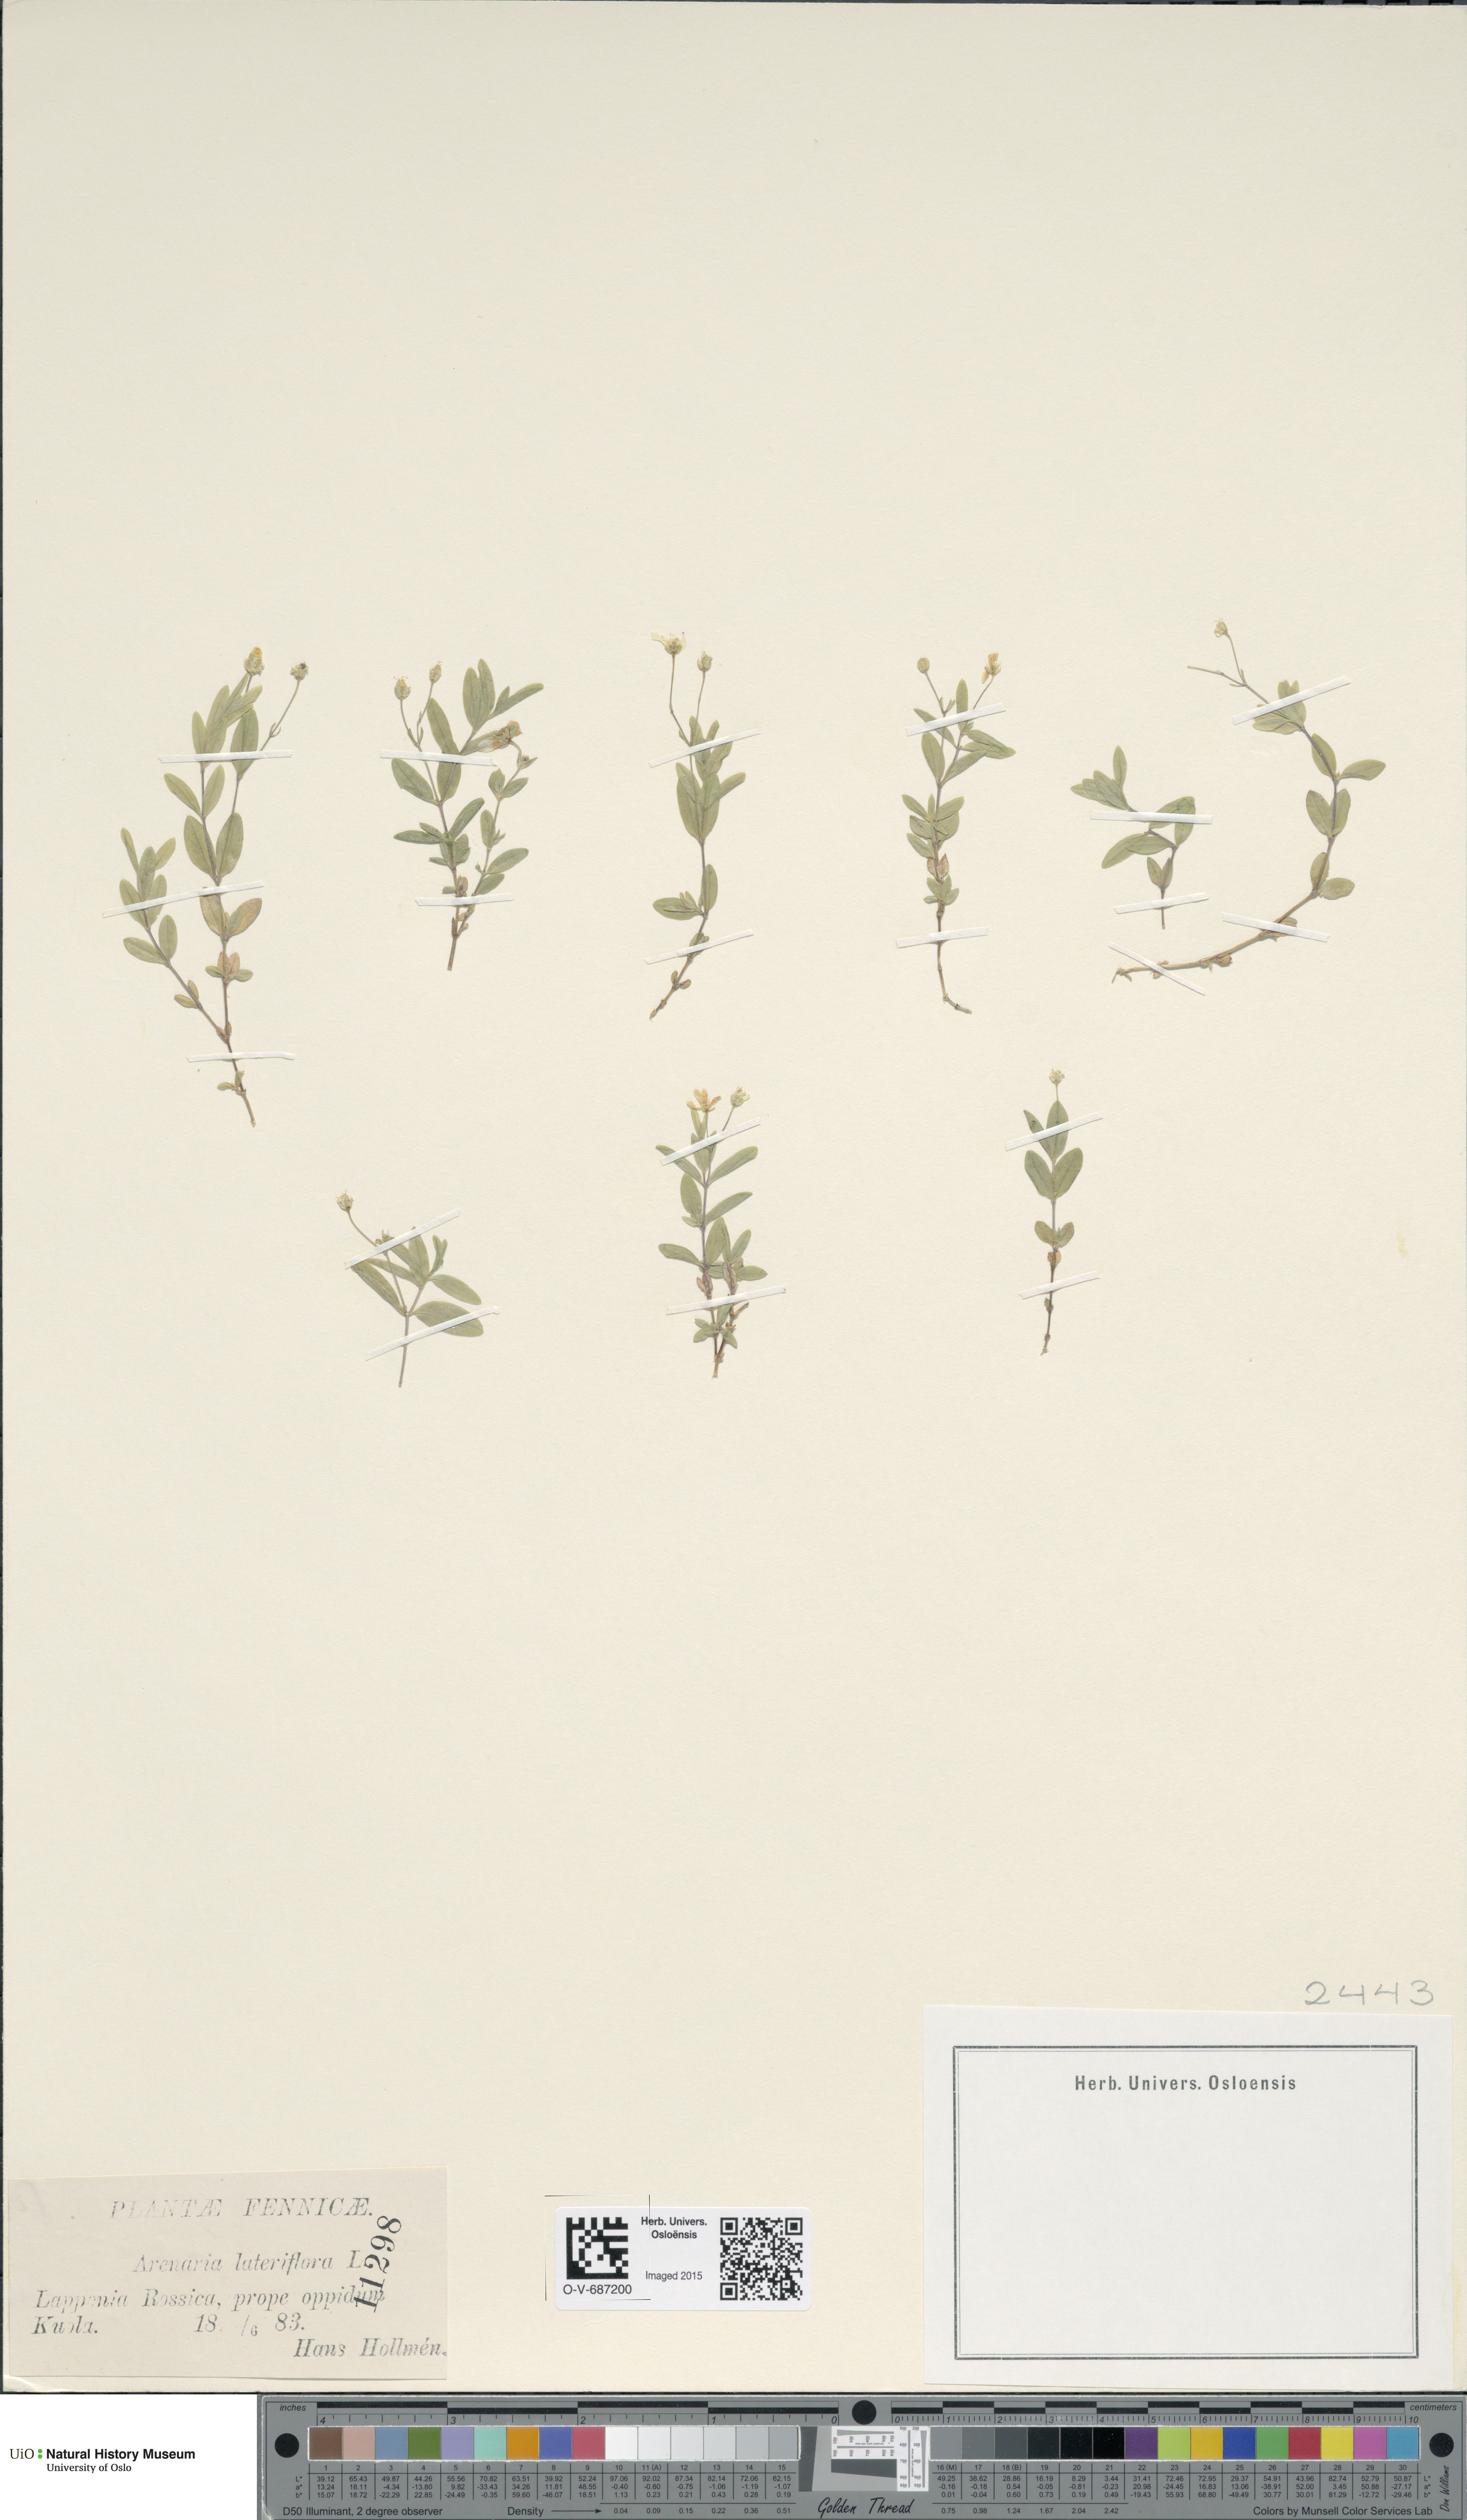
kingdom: Plantae
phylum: Tracheophyta
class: Magnoliopsida
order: Caryophyllales
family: Caryophyllaceae
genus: Moehringia
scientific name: Moehringia lateriflora
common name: Blunt-leaved sandwort
